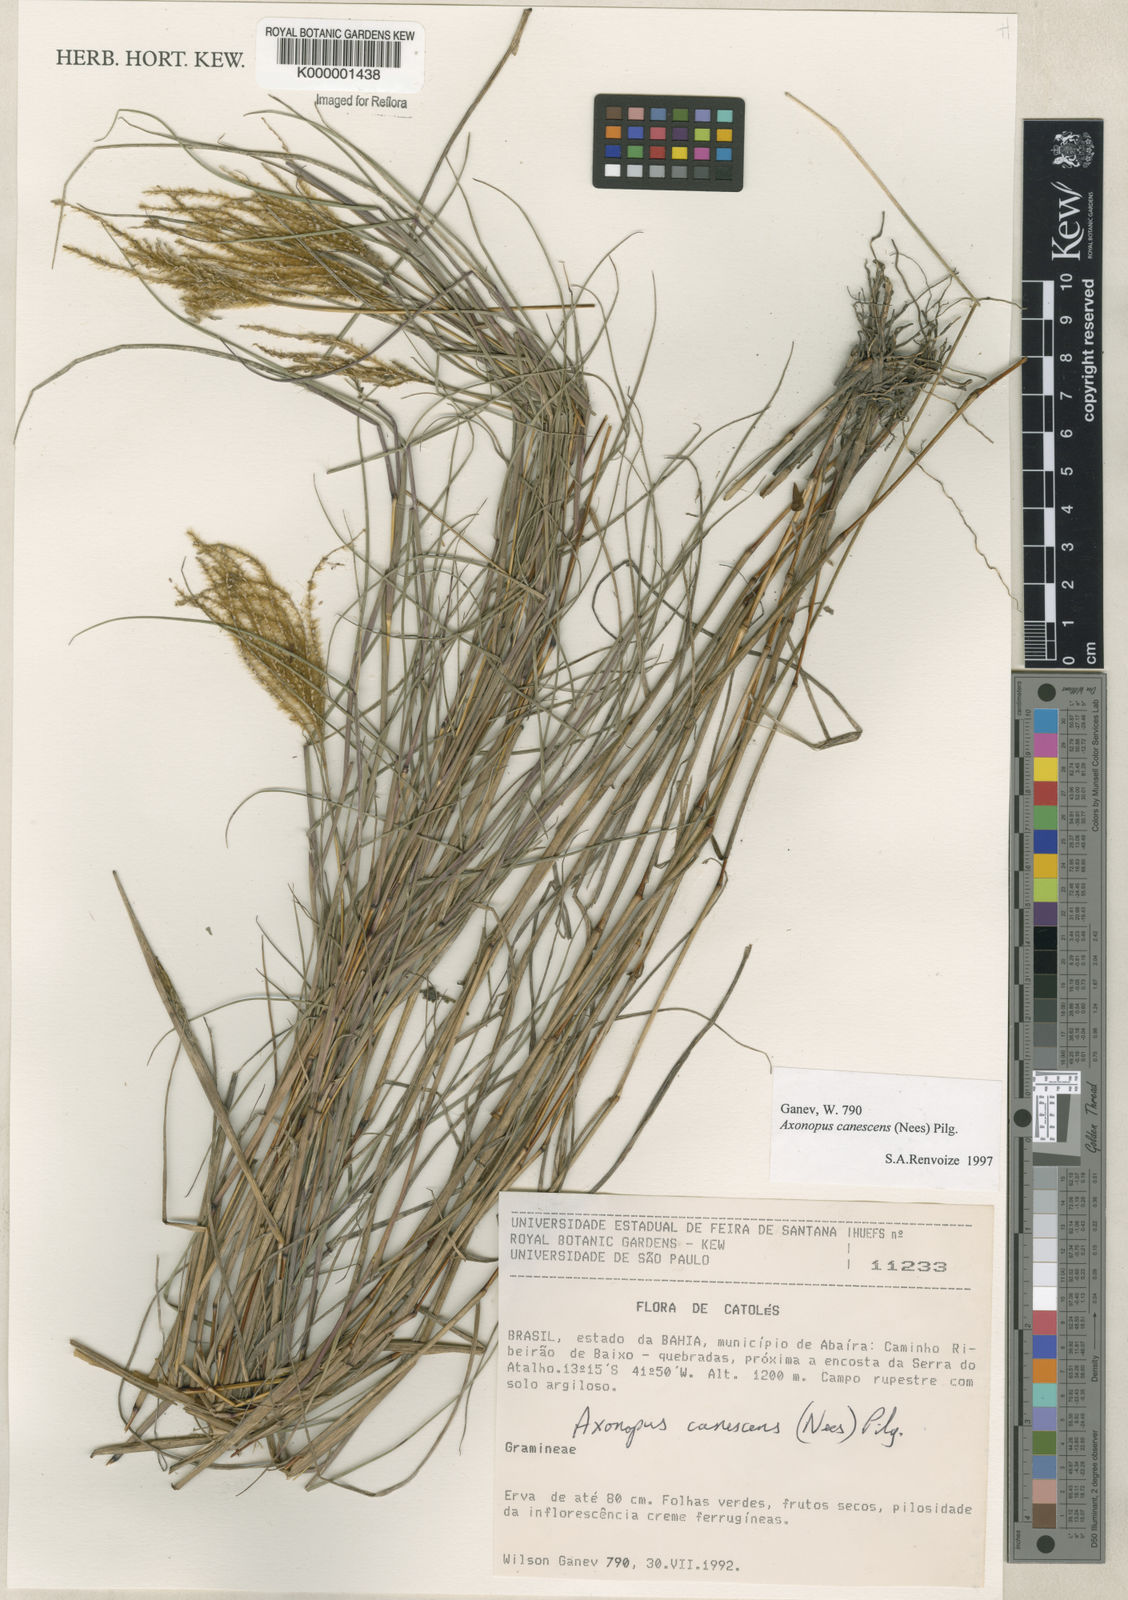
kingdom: Plantae
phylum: Tracheophyta
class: Liliopsida
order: Poales
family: Poaceae
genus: Axonopus
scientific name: Axonopus aureus
